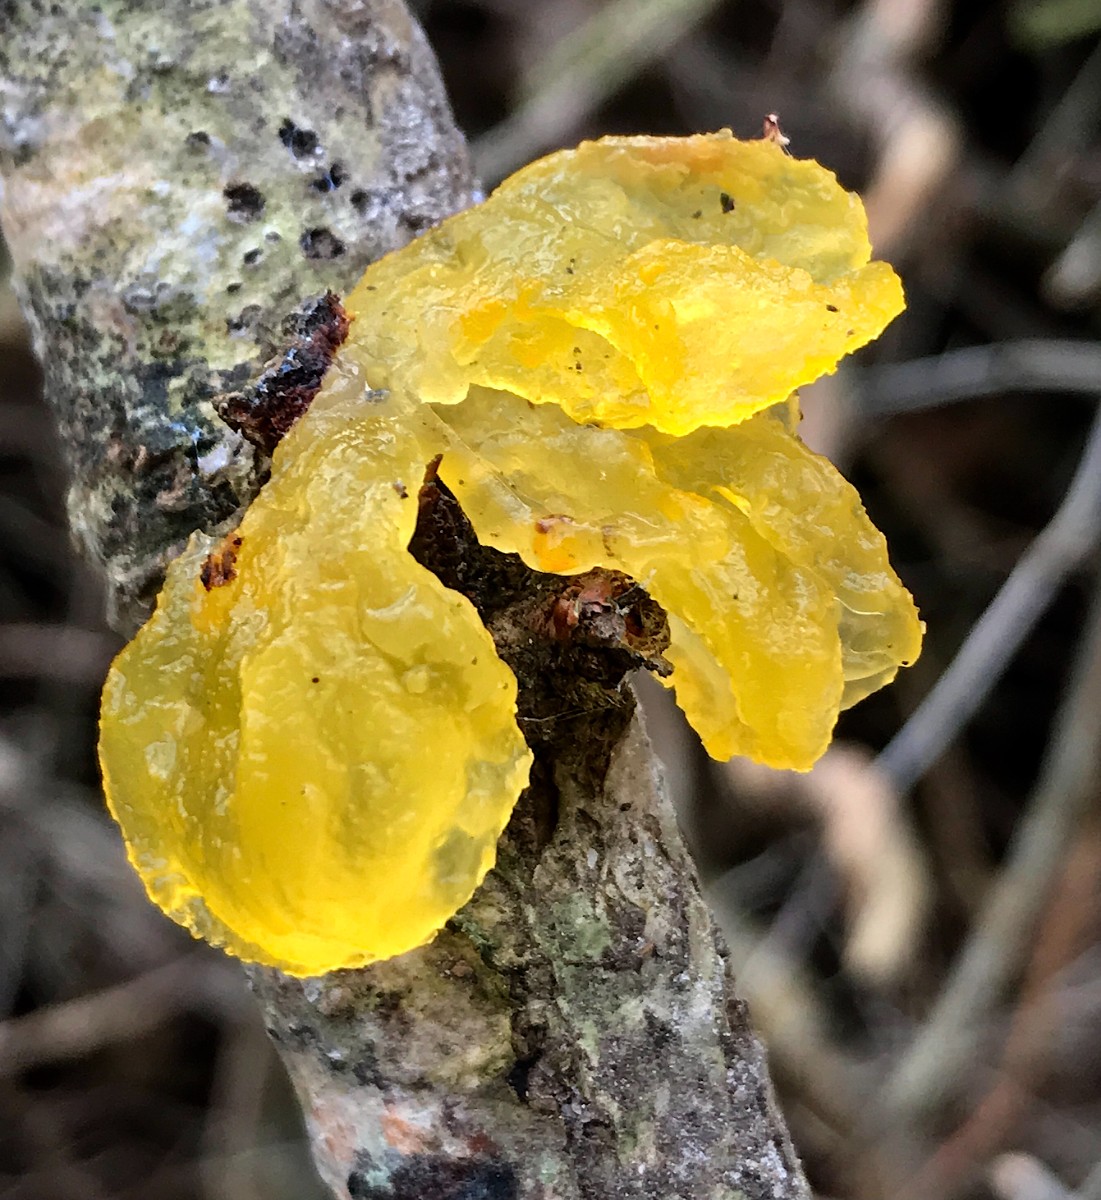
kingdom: Fungi
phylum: Basidiomycota
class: Tremellomycetes
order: Tremellales
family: Tremellaceae
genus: Tremella
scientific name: Tremella mesenterica
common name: gul bævresvamp
